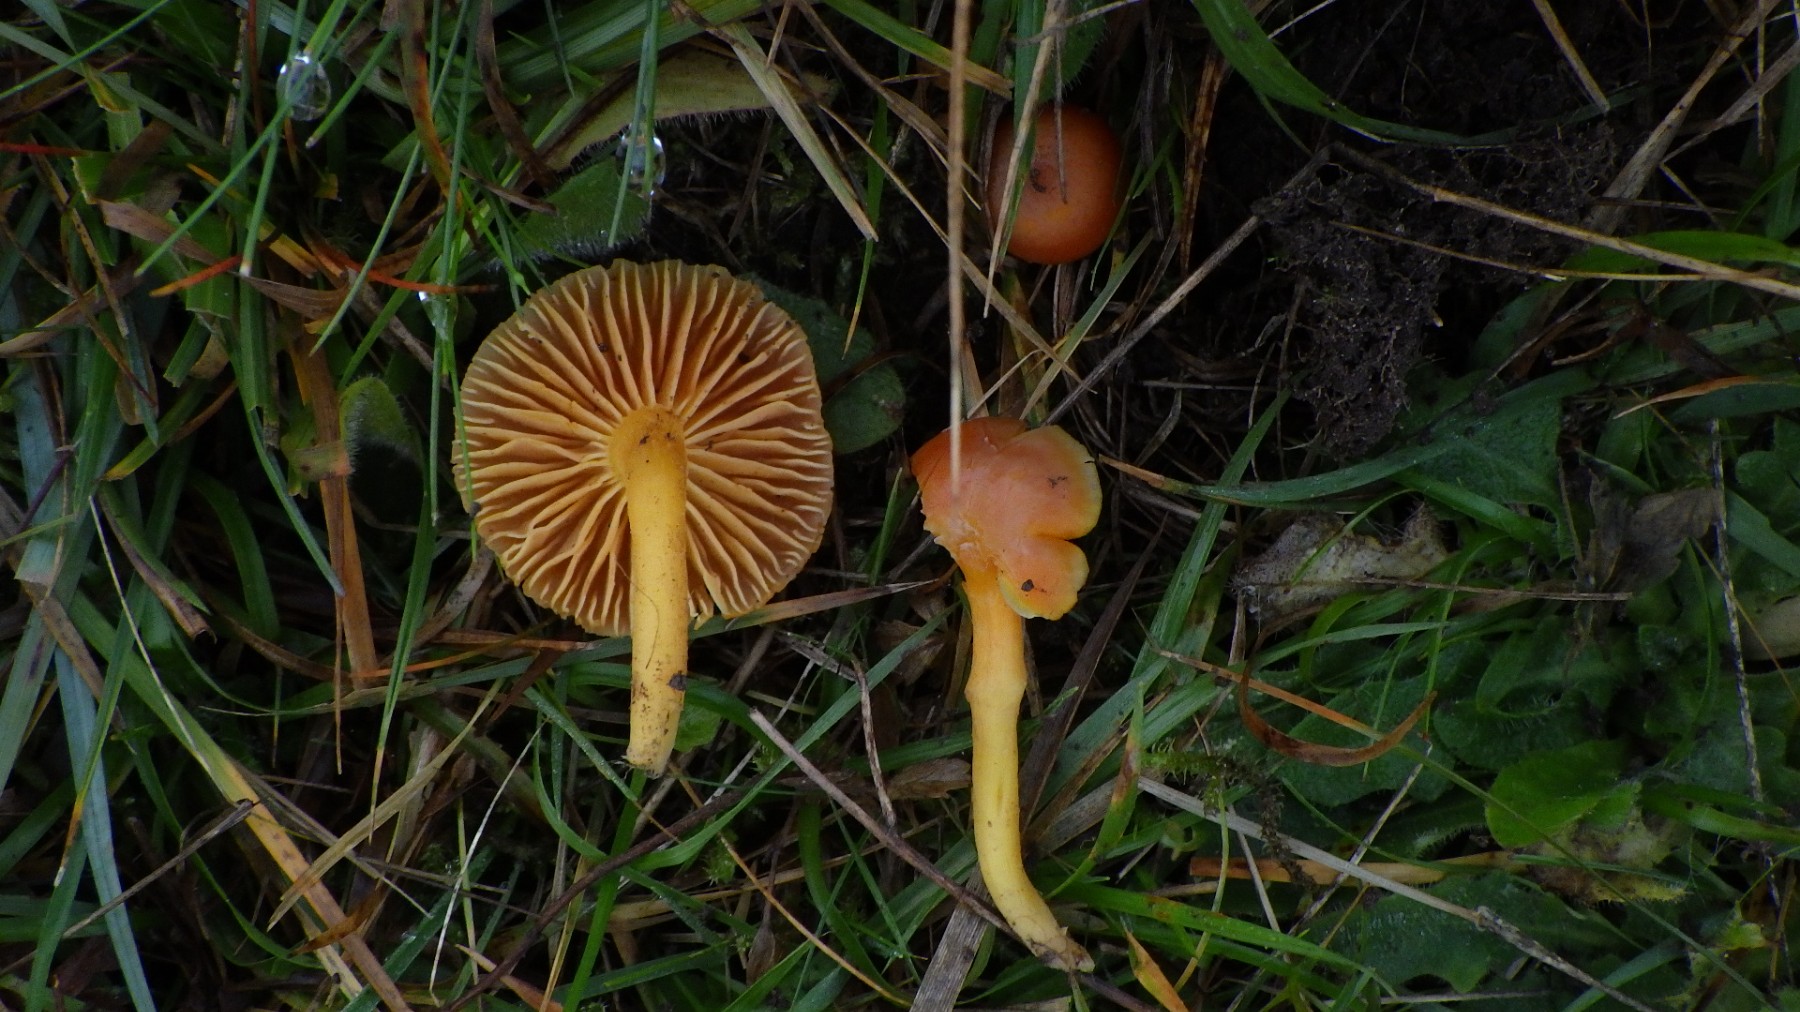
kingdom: Fungi
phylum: Basidiomycota
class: Agaricomycetes
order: Agaricales
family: Hygrophoraceae
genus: Hygrocybe
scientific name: Hygrocybe reidii
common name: honning-vokshat
